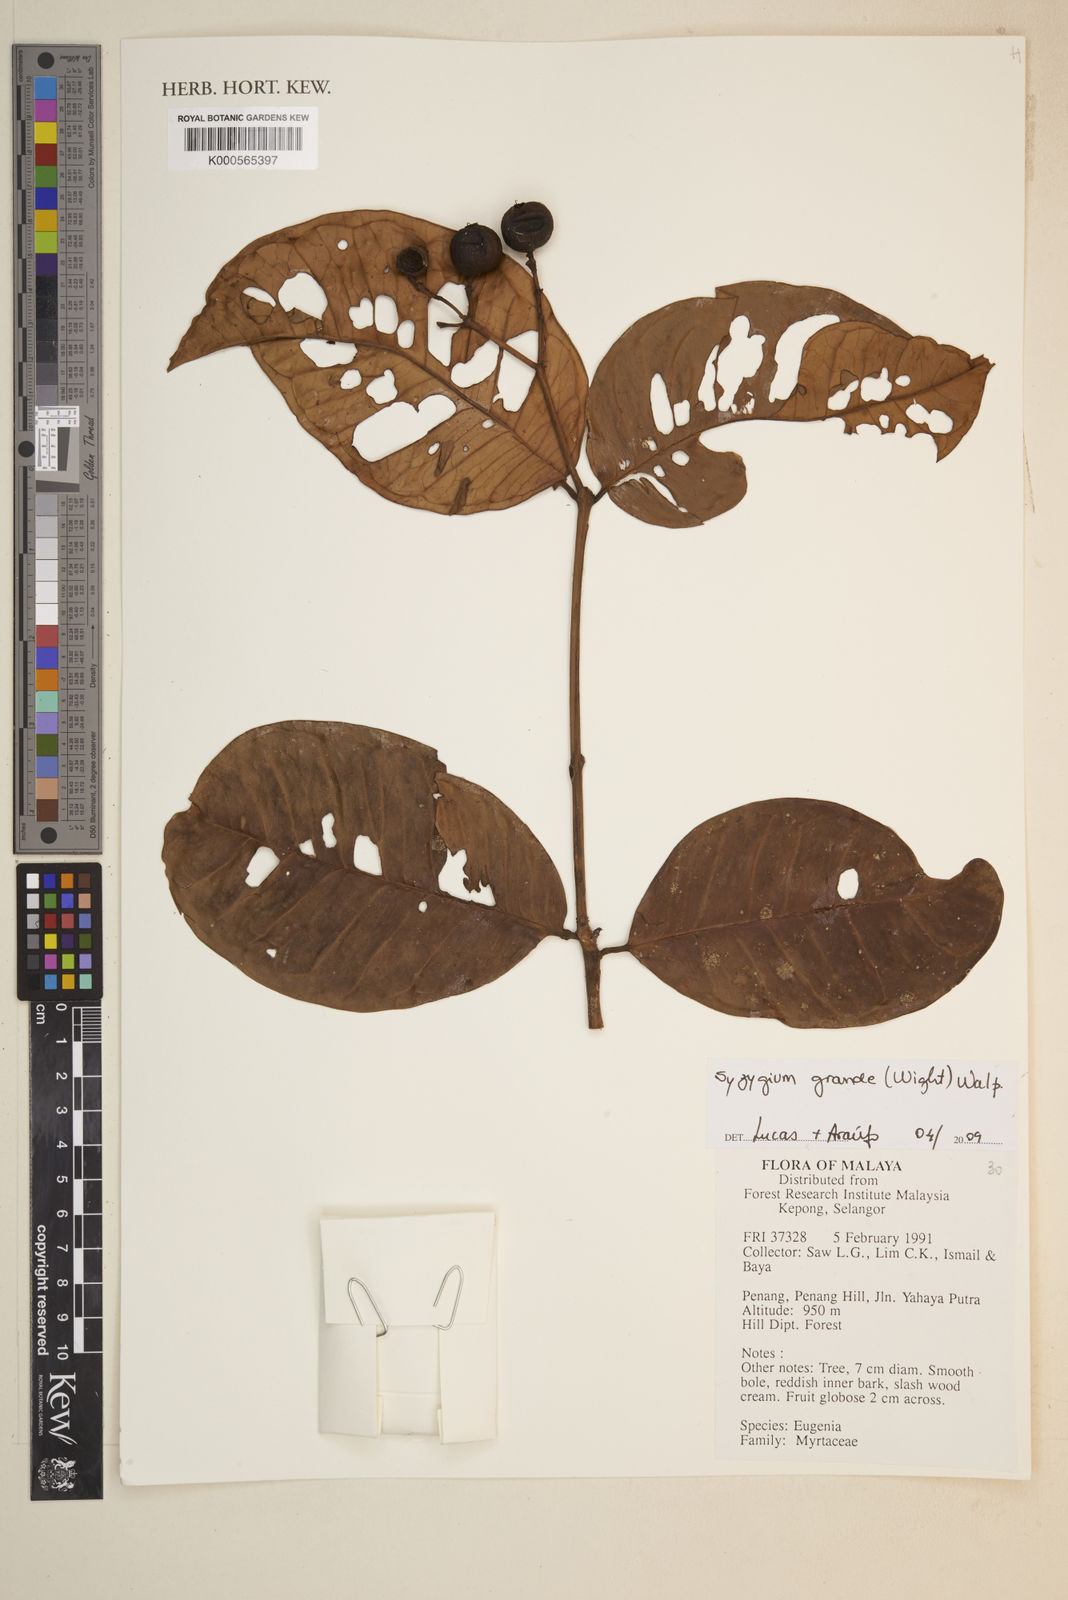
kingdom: Plantae
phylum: Tracheophyta
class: Magnoliopsida
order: Myrtales
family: Myrtaceae
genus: Syzygium
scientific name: Syzygium grande
